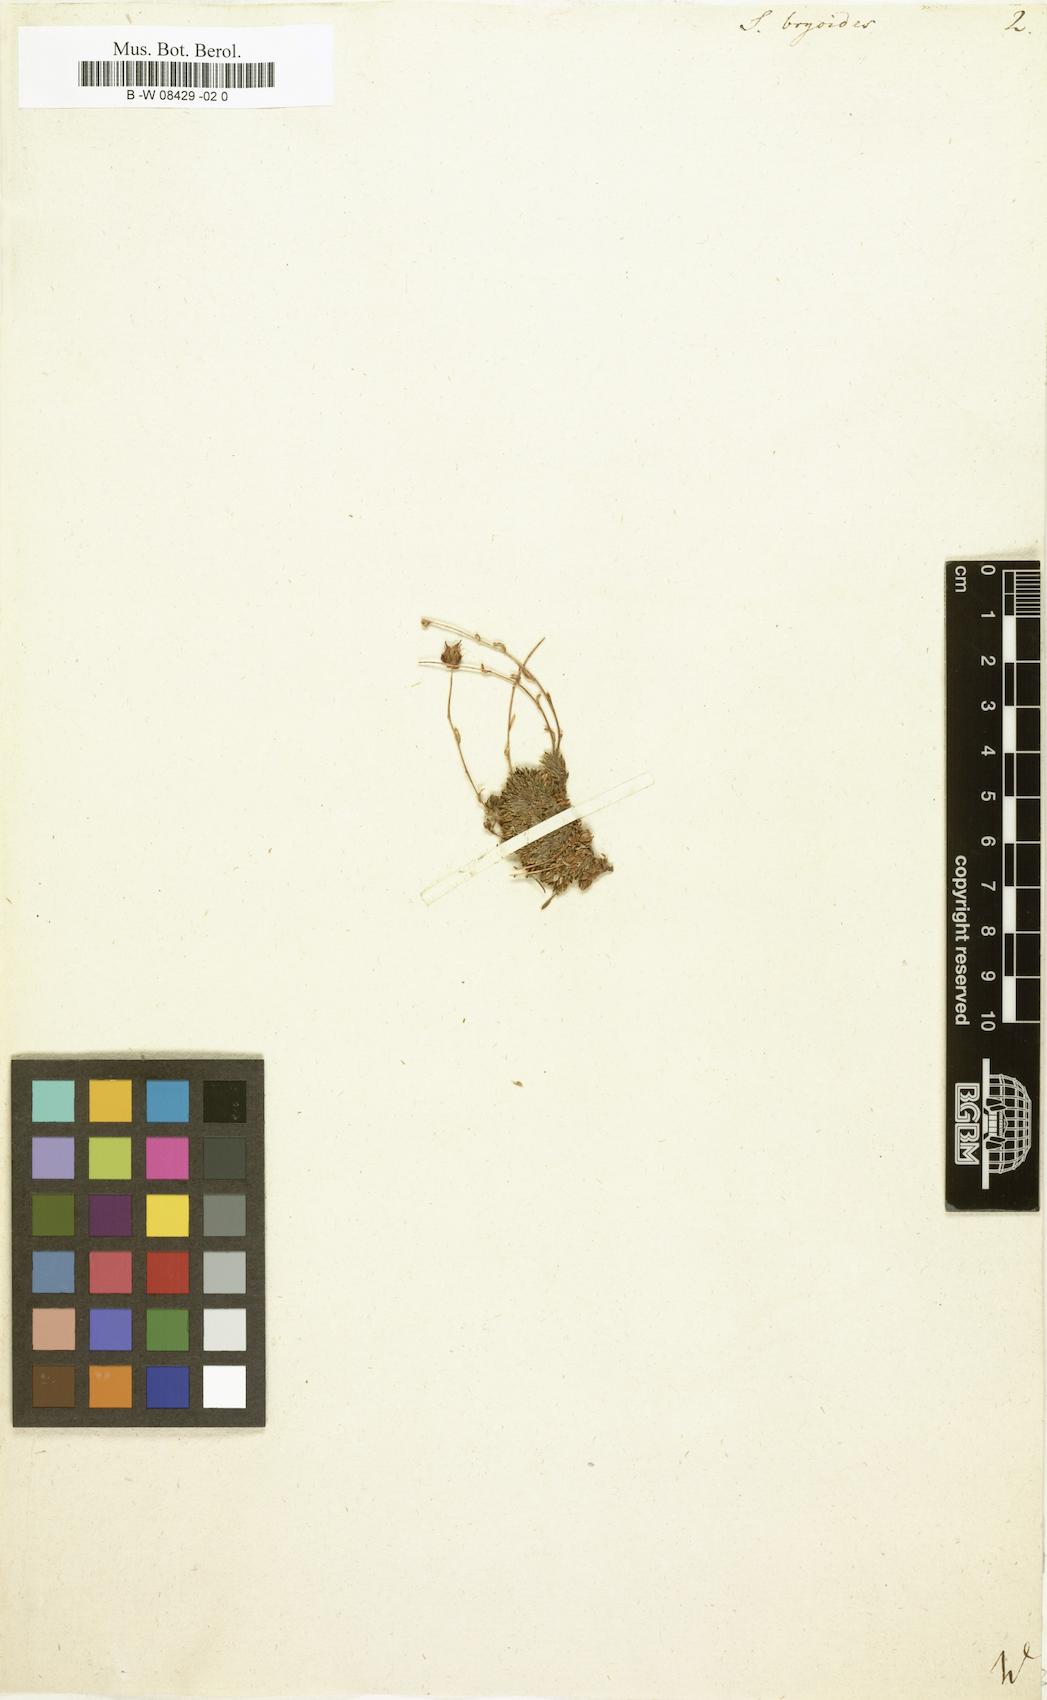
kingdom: Plantae
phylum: Tracheophyta
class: Magnoliopsida
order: Saxifragales
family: Saxifragaceae
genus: Saxifraga
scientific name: Saxifraga bryoides
